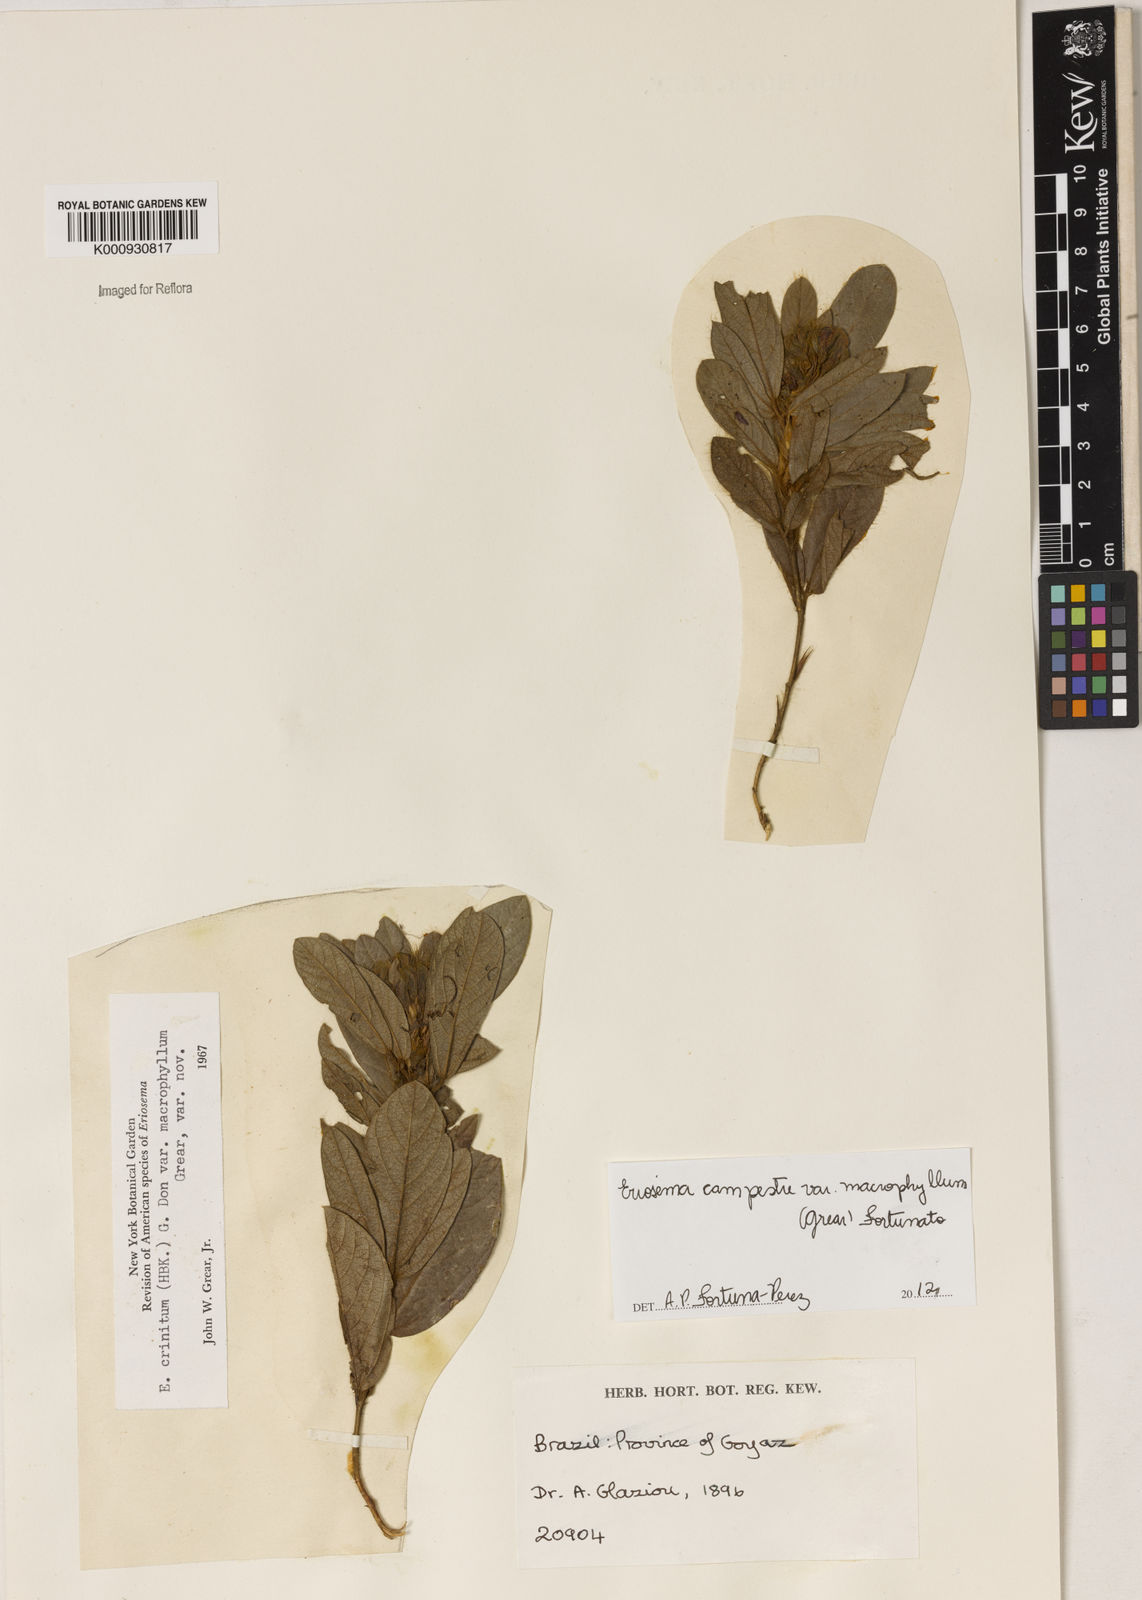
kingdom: Plantae
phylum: Tracheophyta
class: Magnoliopsida
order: Fabales
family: Fabaceae
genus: Eriosema
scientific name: Eriosema campestre
